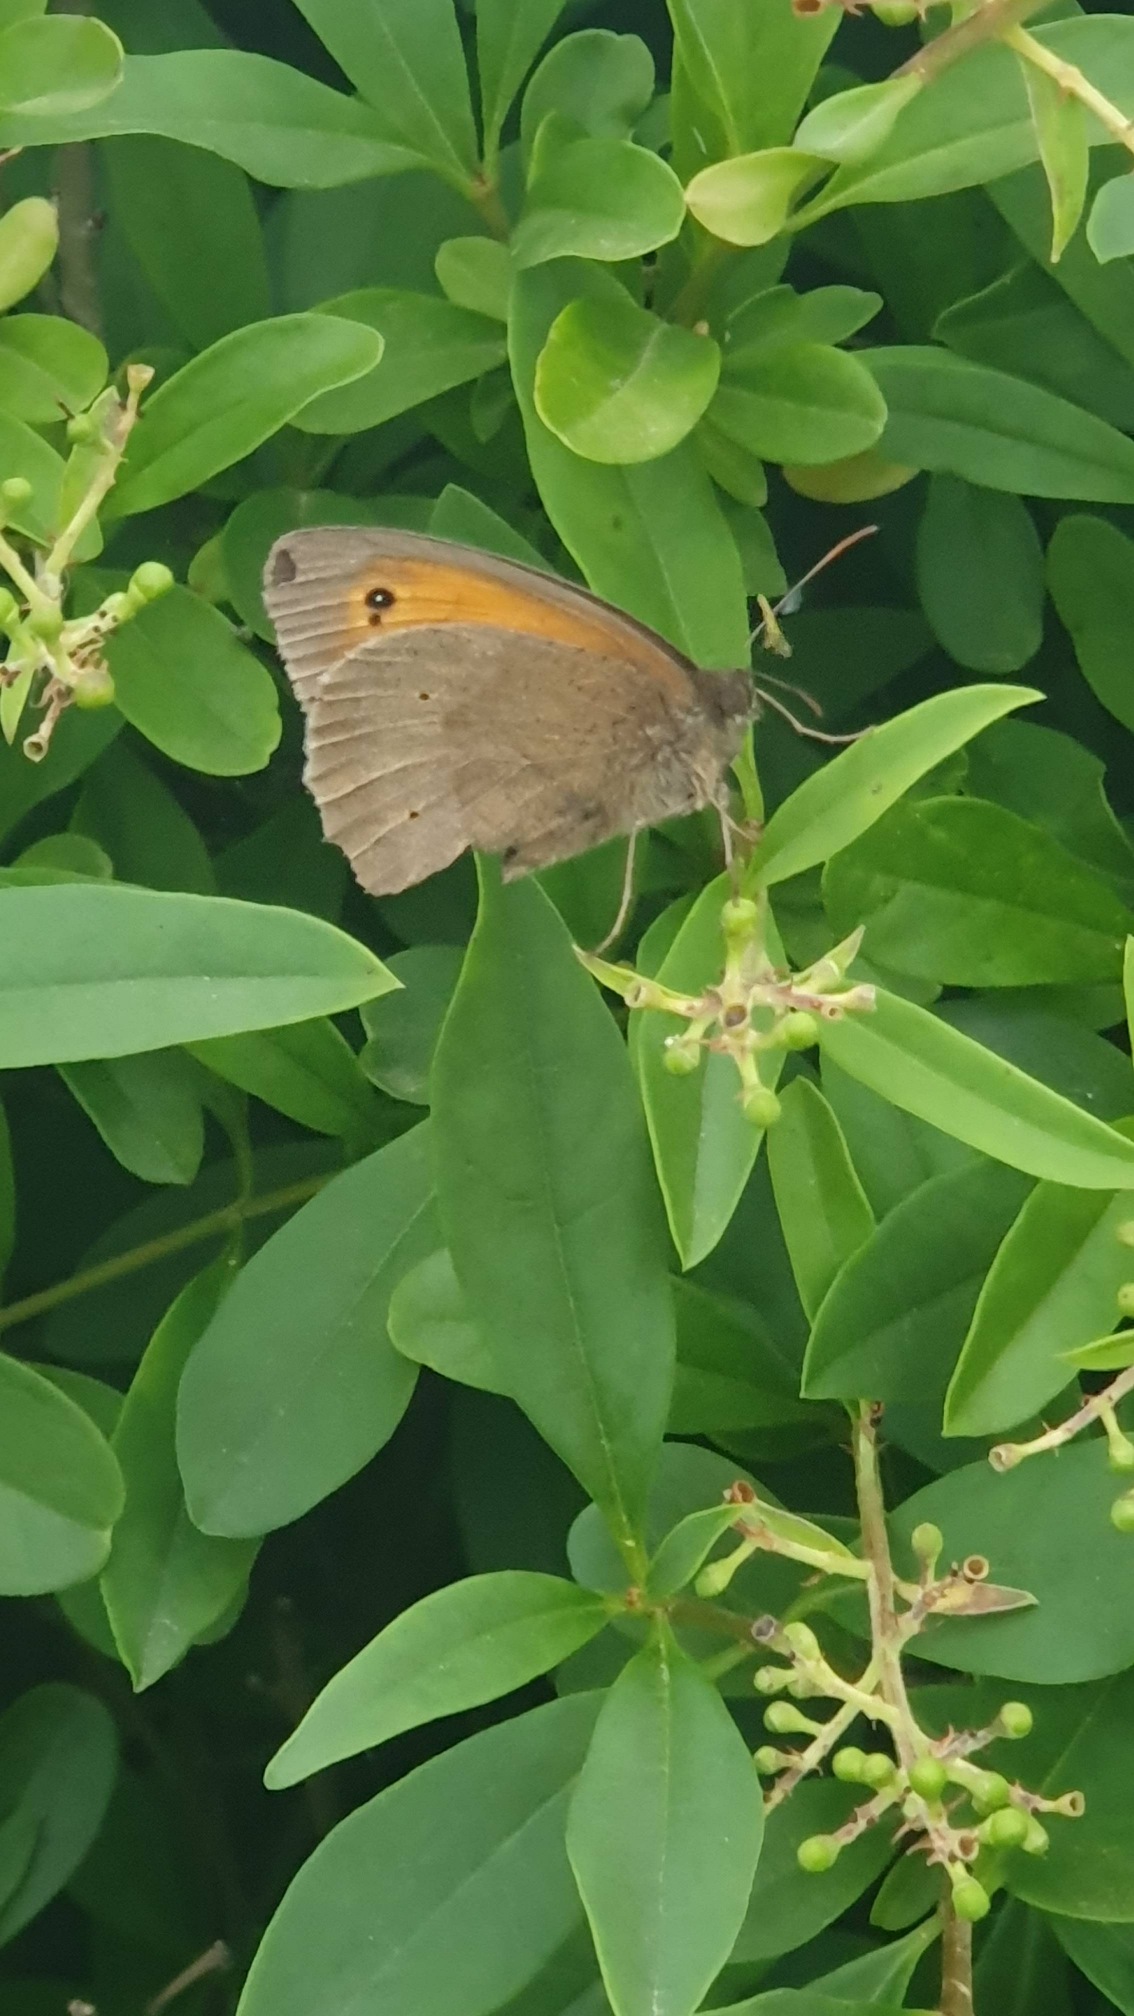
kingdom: Animalia
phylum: Arthropoda
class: Insecta
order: Lepidoptera
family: Nymphalidae
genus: Maniola
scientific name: Maniola jurtina
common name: Græsrandøje
